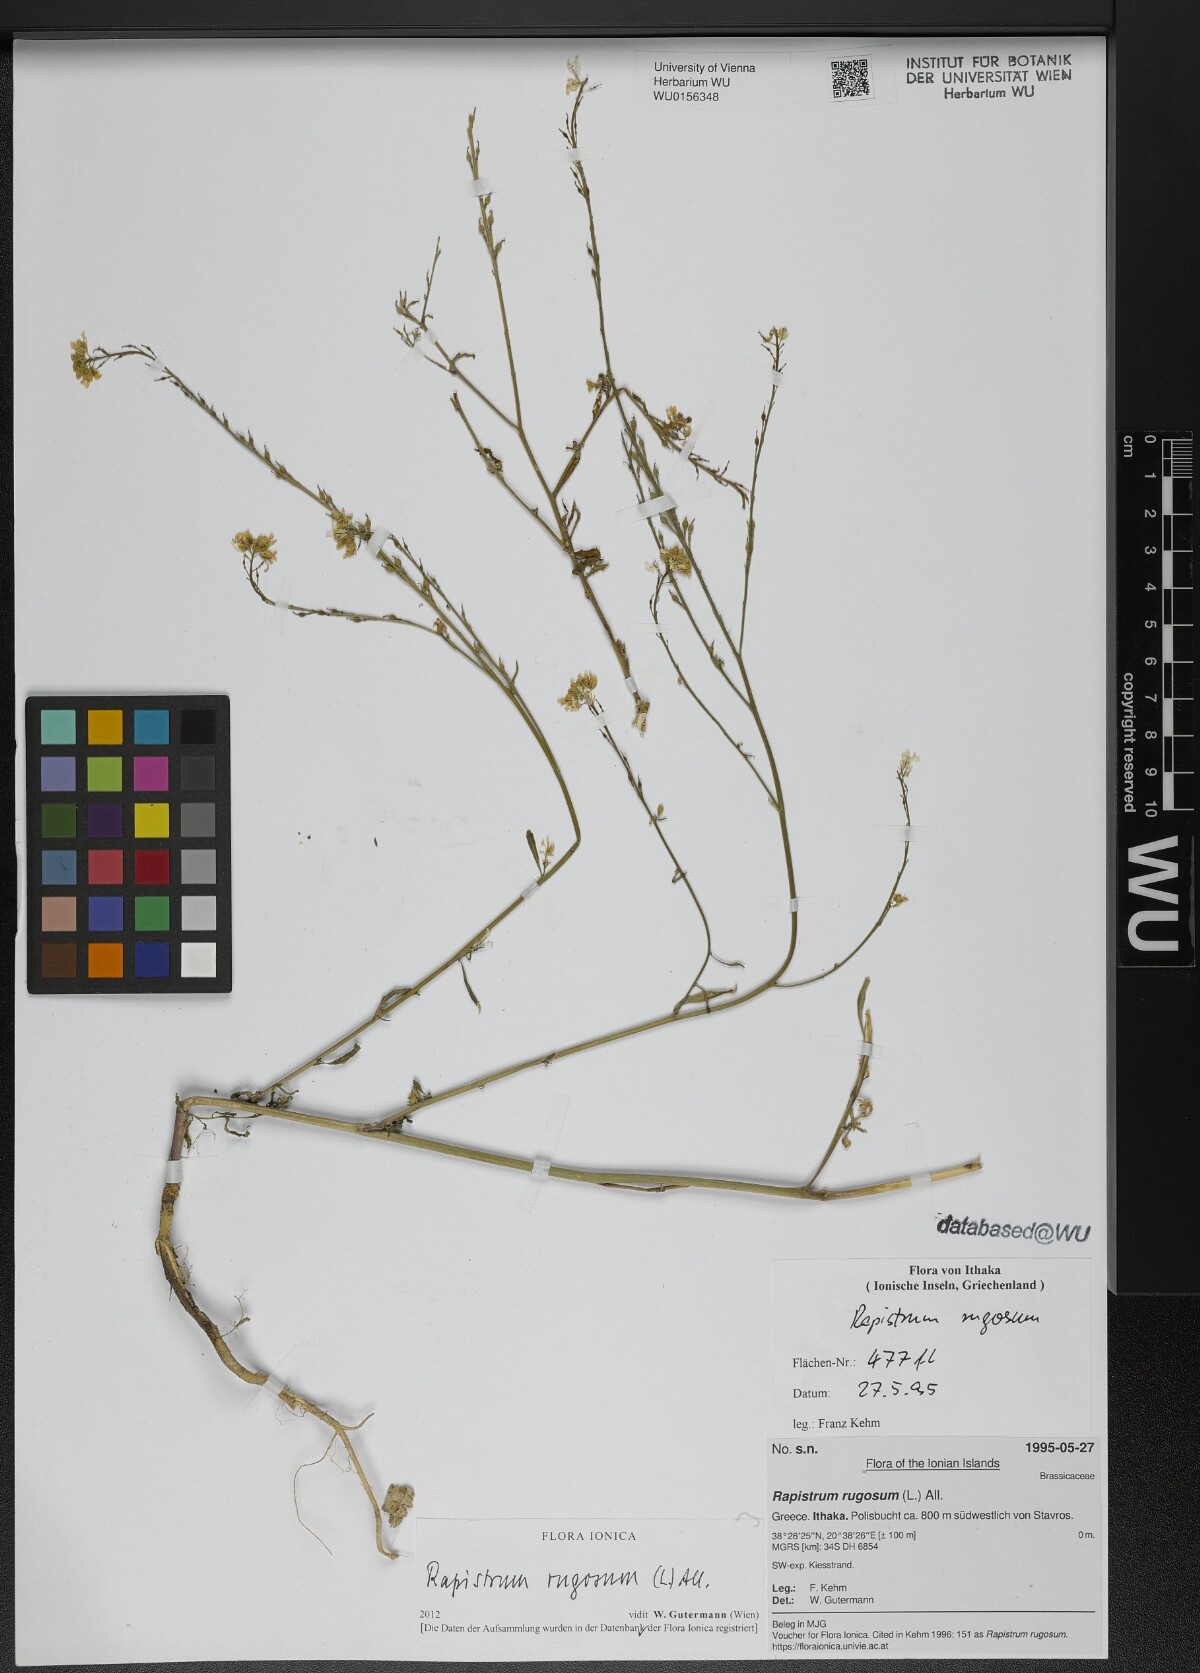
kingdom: Plantae
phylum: Tracheophyta
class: Magnoliopsida
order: Brassicales
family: Brassicaceae
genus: Rapistrum
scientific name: Rapistrum rugosum
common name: Annual bastardcabbage
